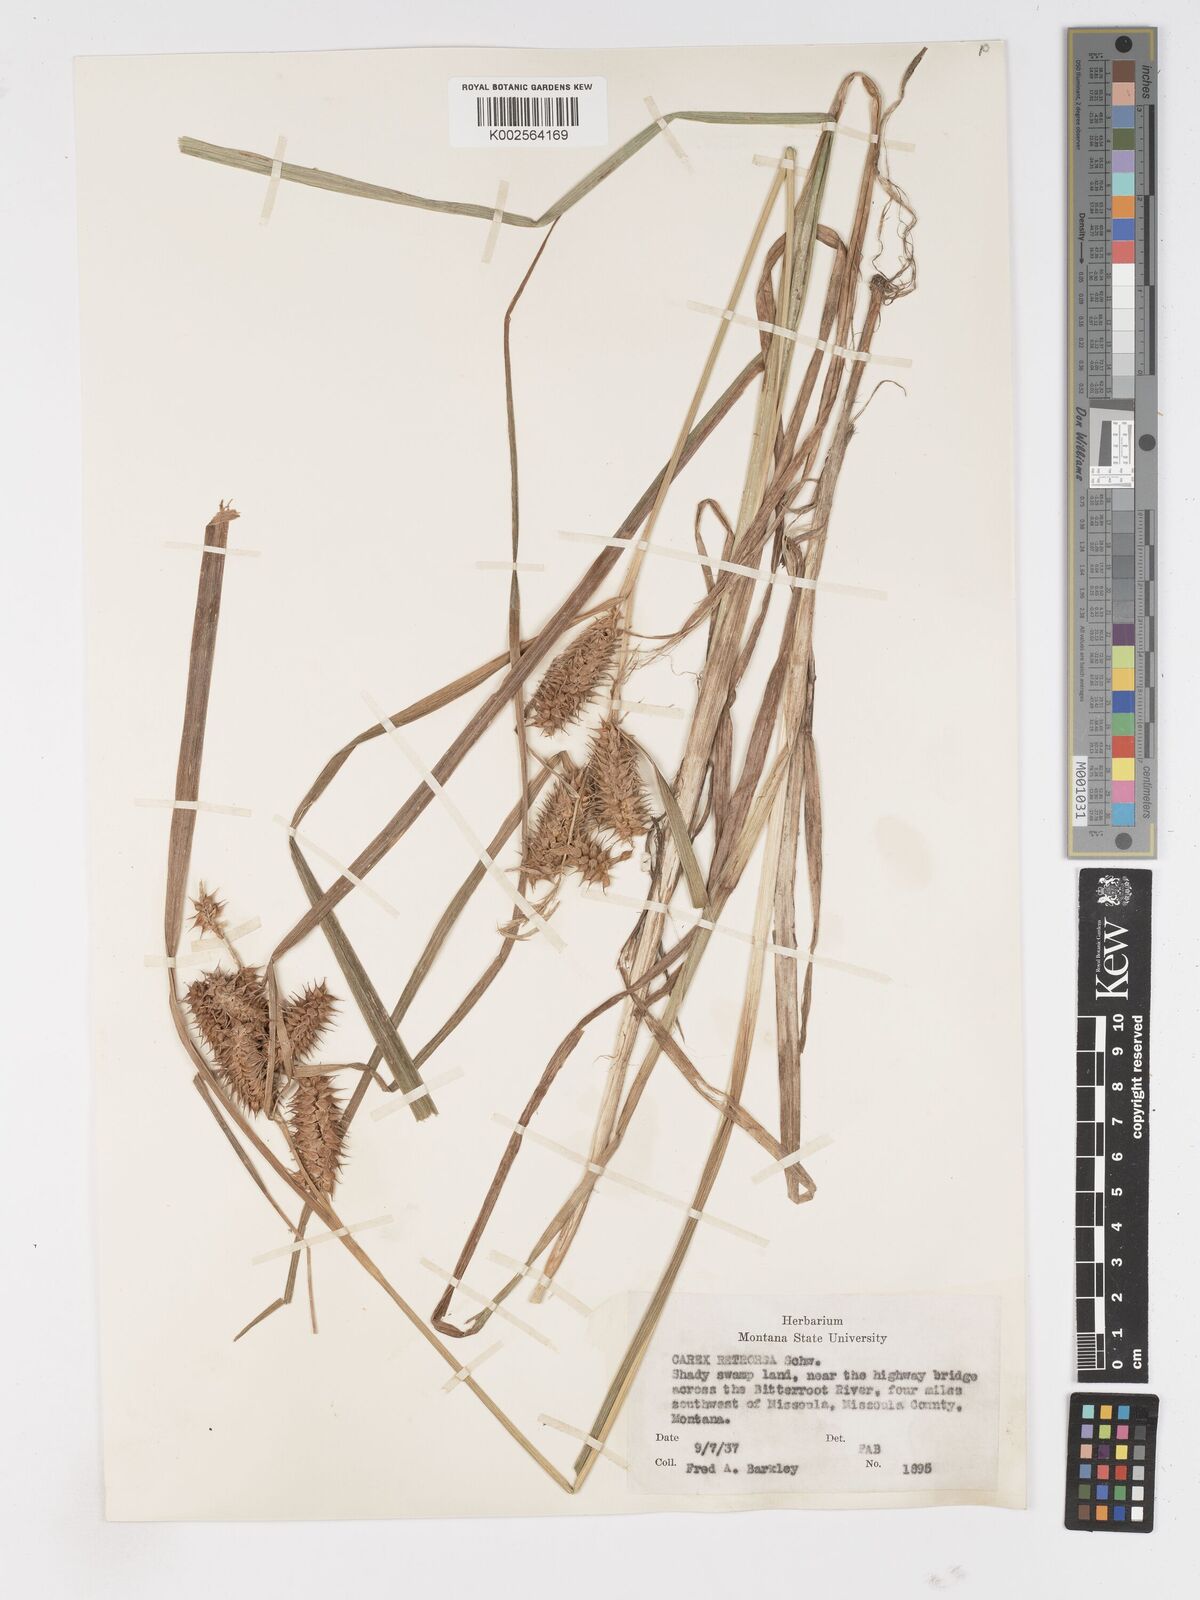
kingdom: Plantae
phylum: Tracheophyta
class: Liliopsida
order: Poales
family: Cyperaceae
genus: Carex
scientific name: Carex retrorsa
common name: Knot-sheath sedge
